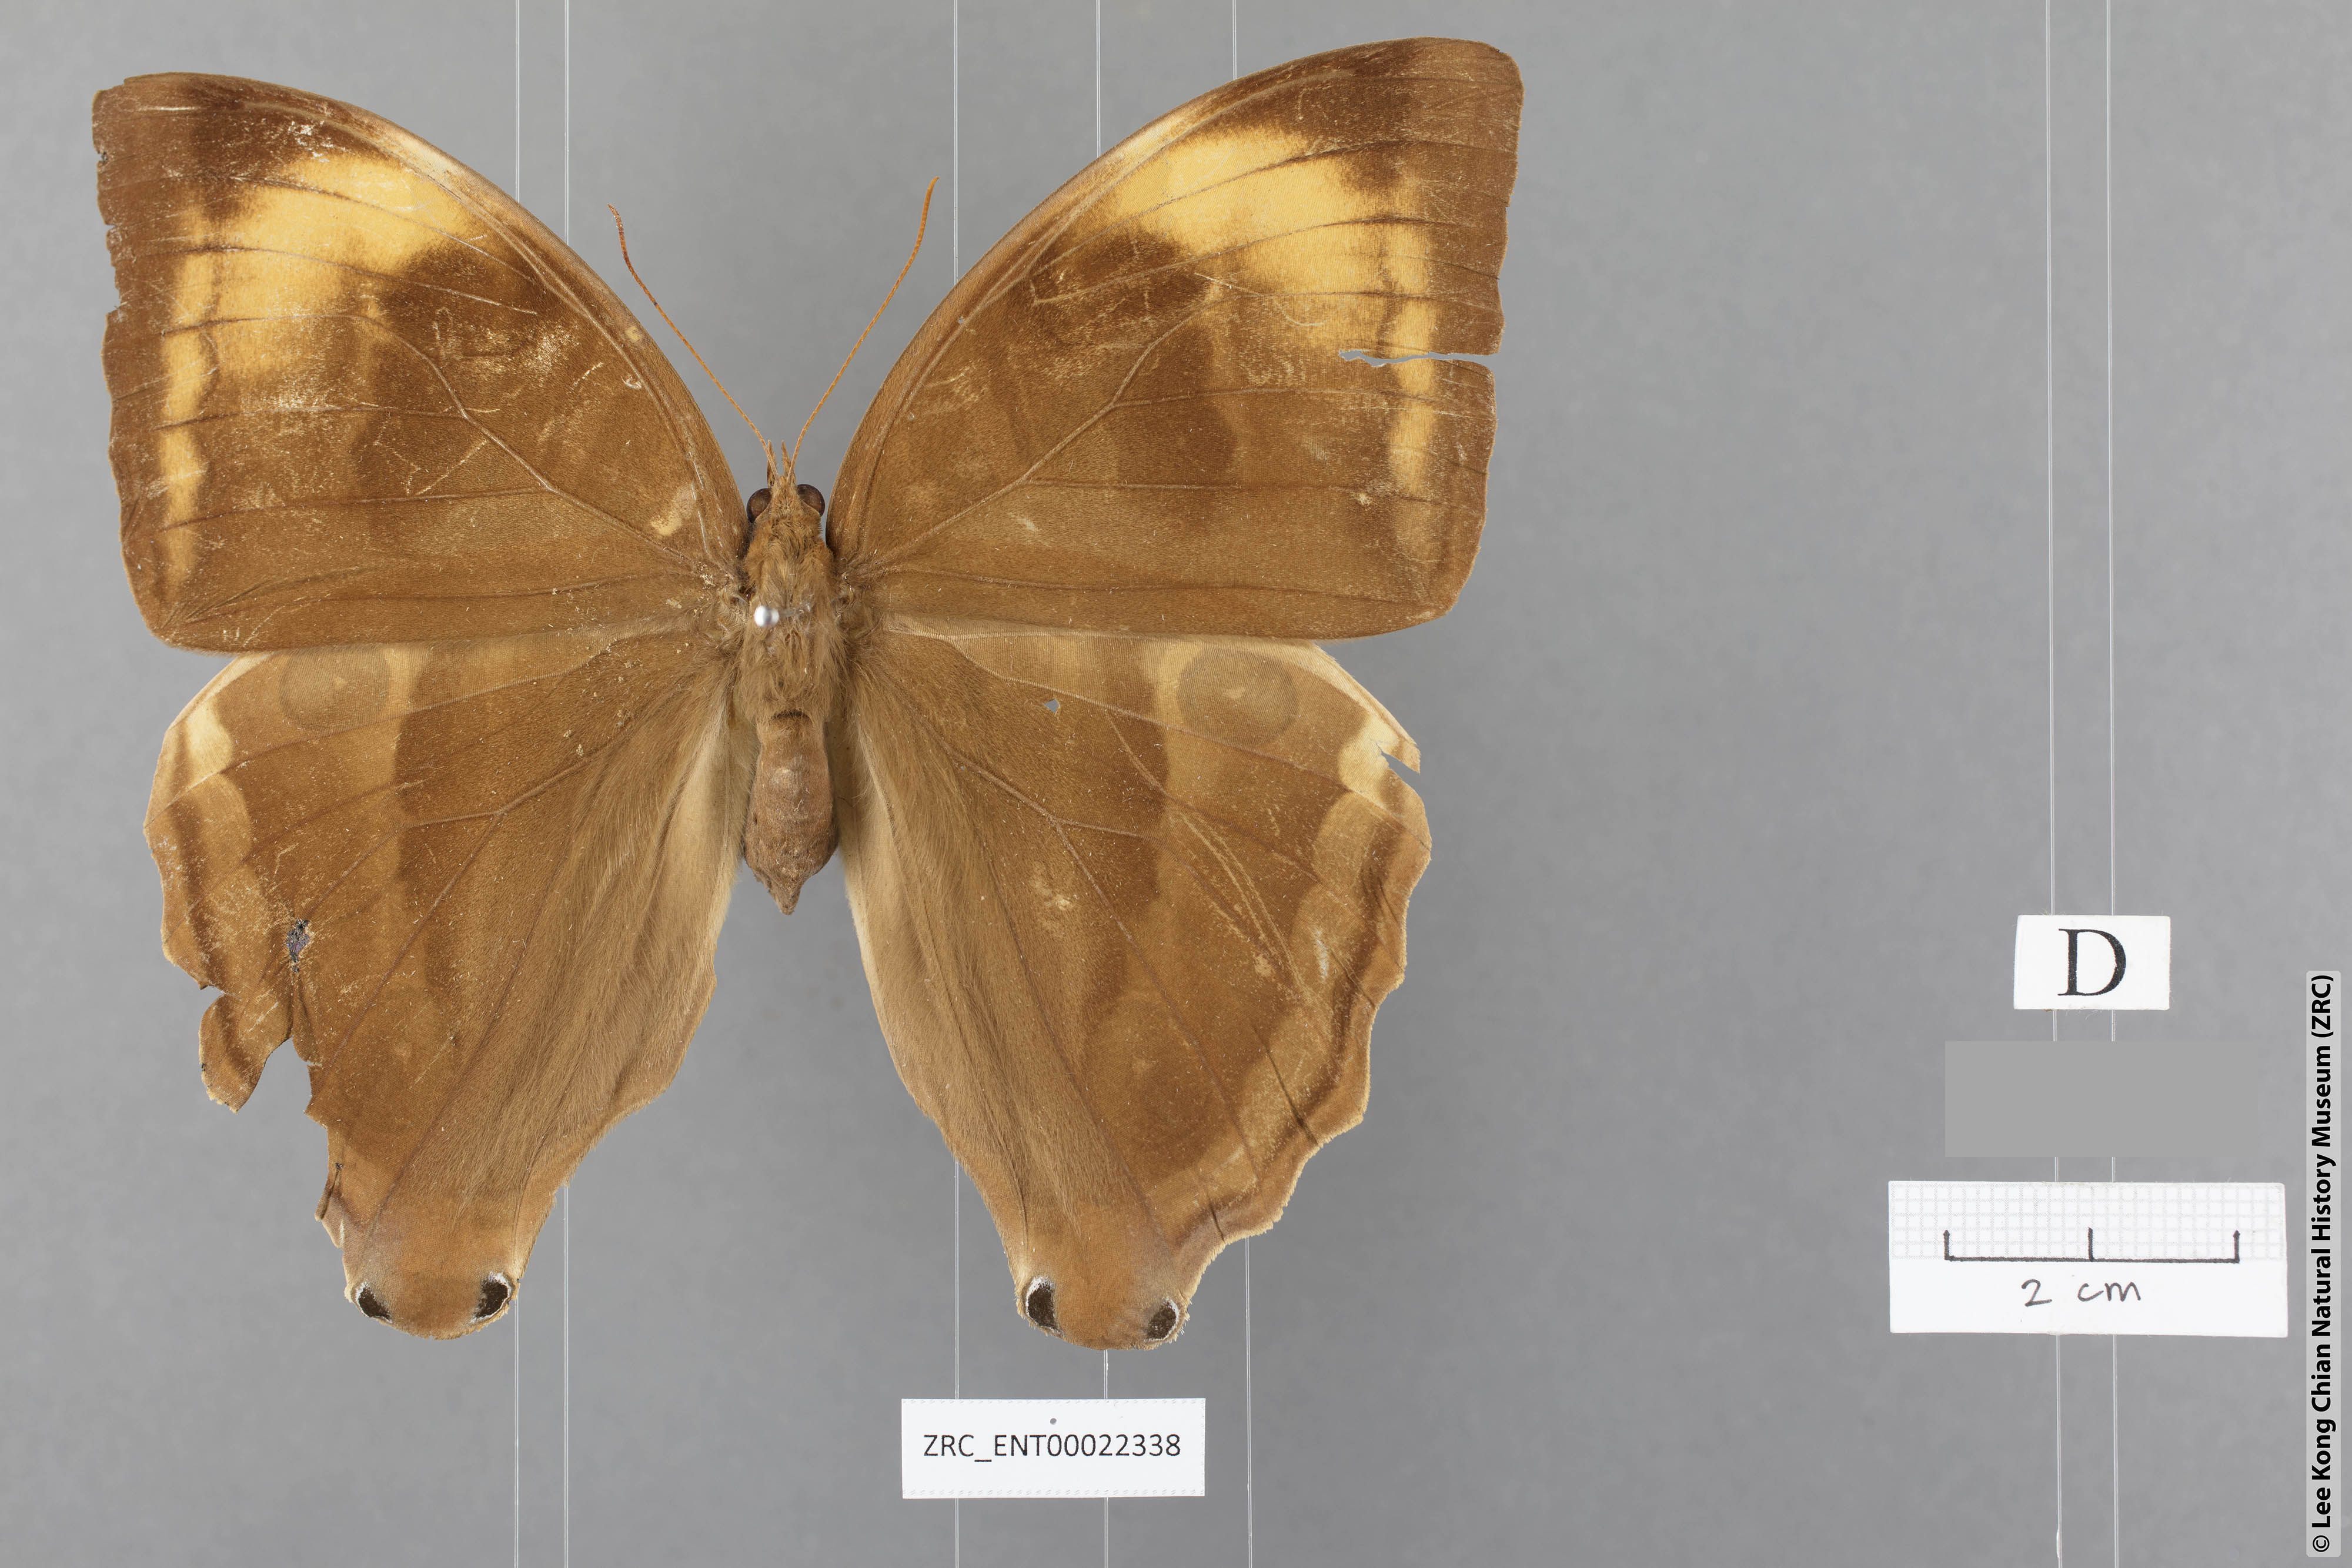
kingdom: Animalia
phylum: Arthropoda
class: Insecta
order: Lepidoptera
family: Nymphalidae
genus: Amathusia
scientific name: Amathusia
